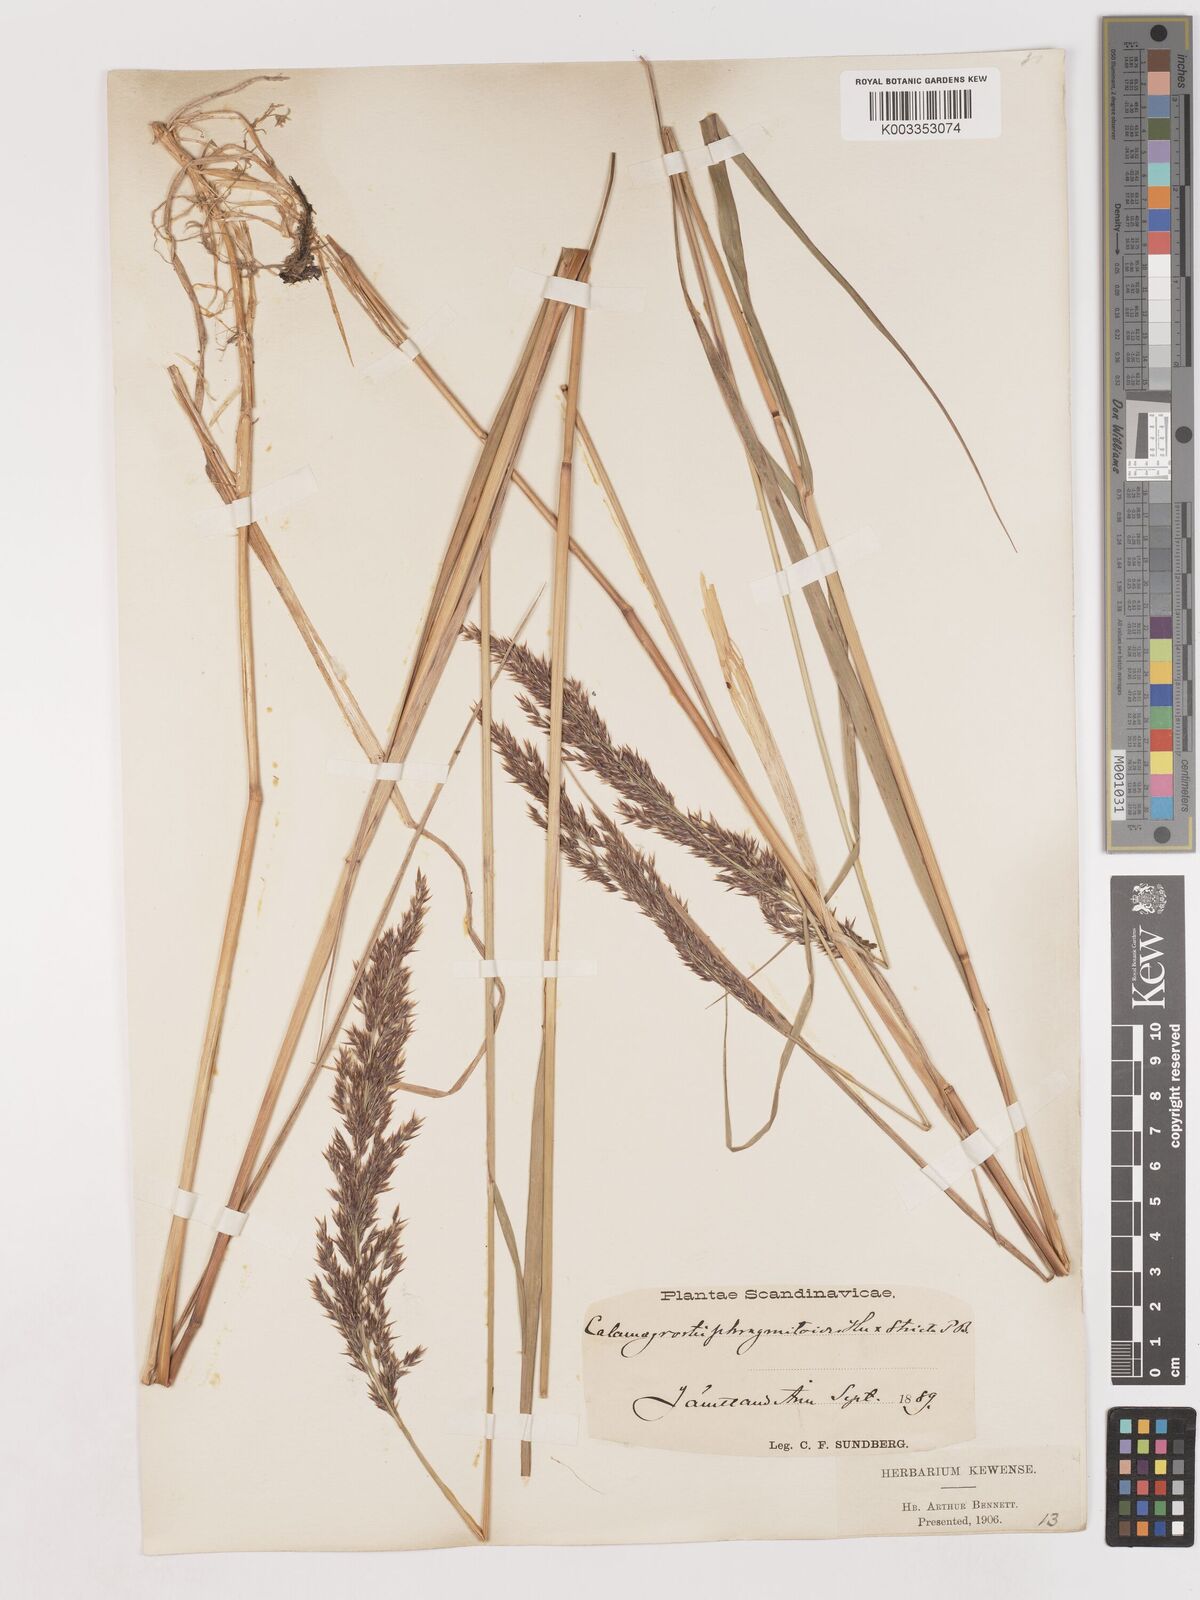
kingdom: Plantae
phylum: Tracheophyta
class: Liliopsida
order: Poales
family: Poaceae
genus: Calamagrostis
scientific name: Calamagrostis epigejos
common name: Wood small-reed
